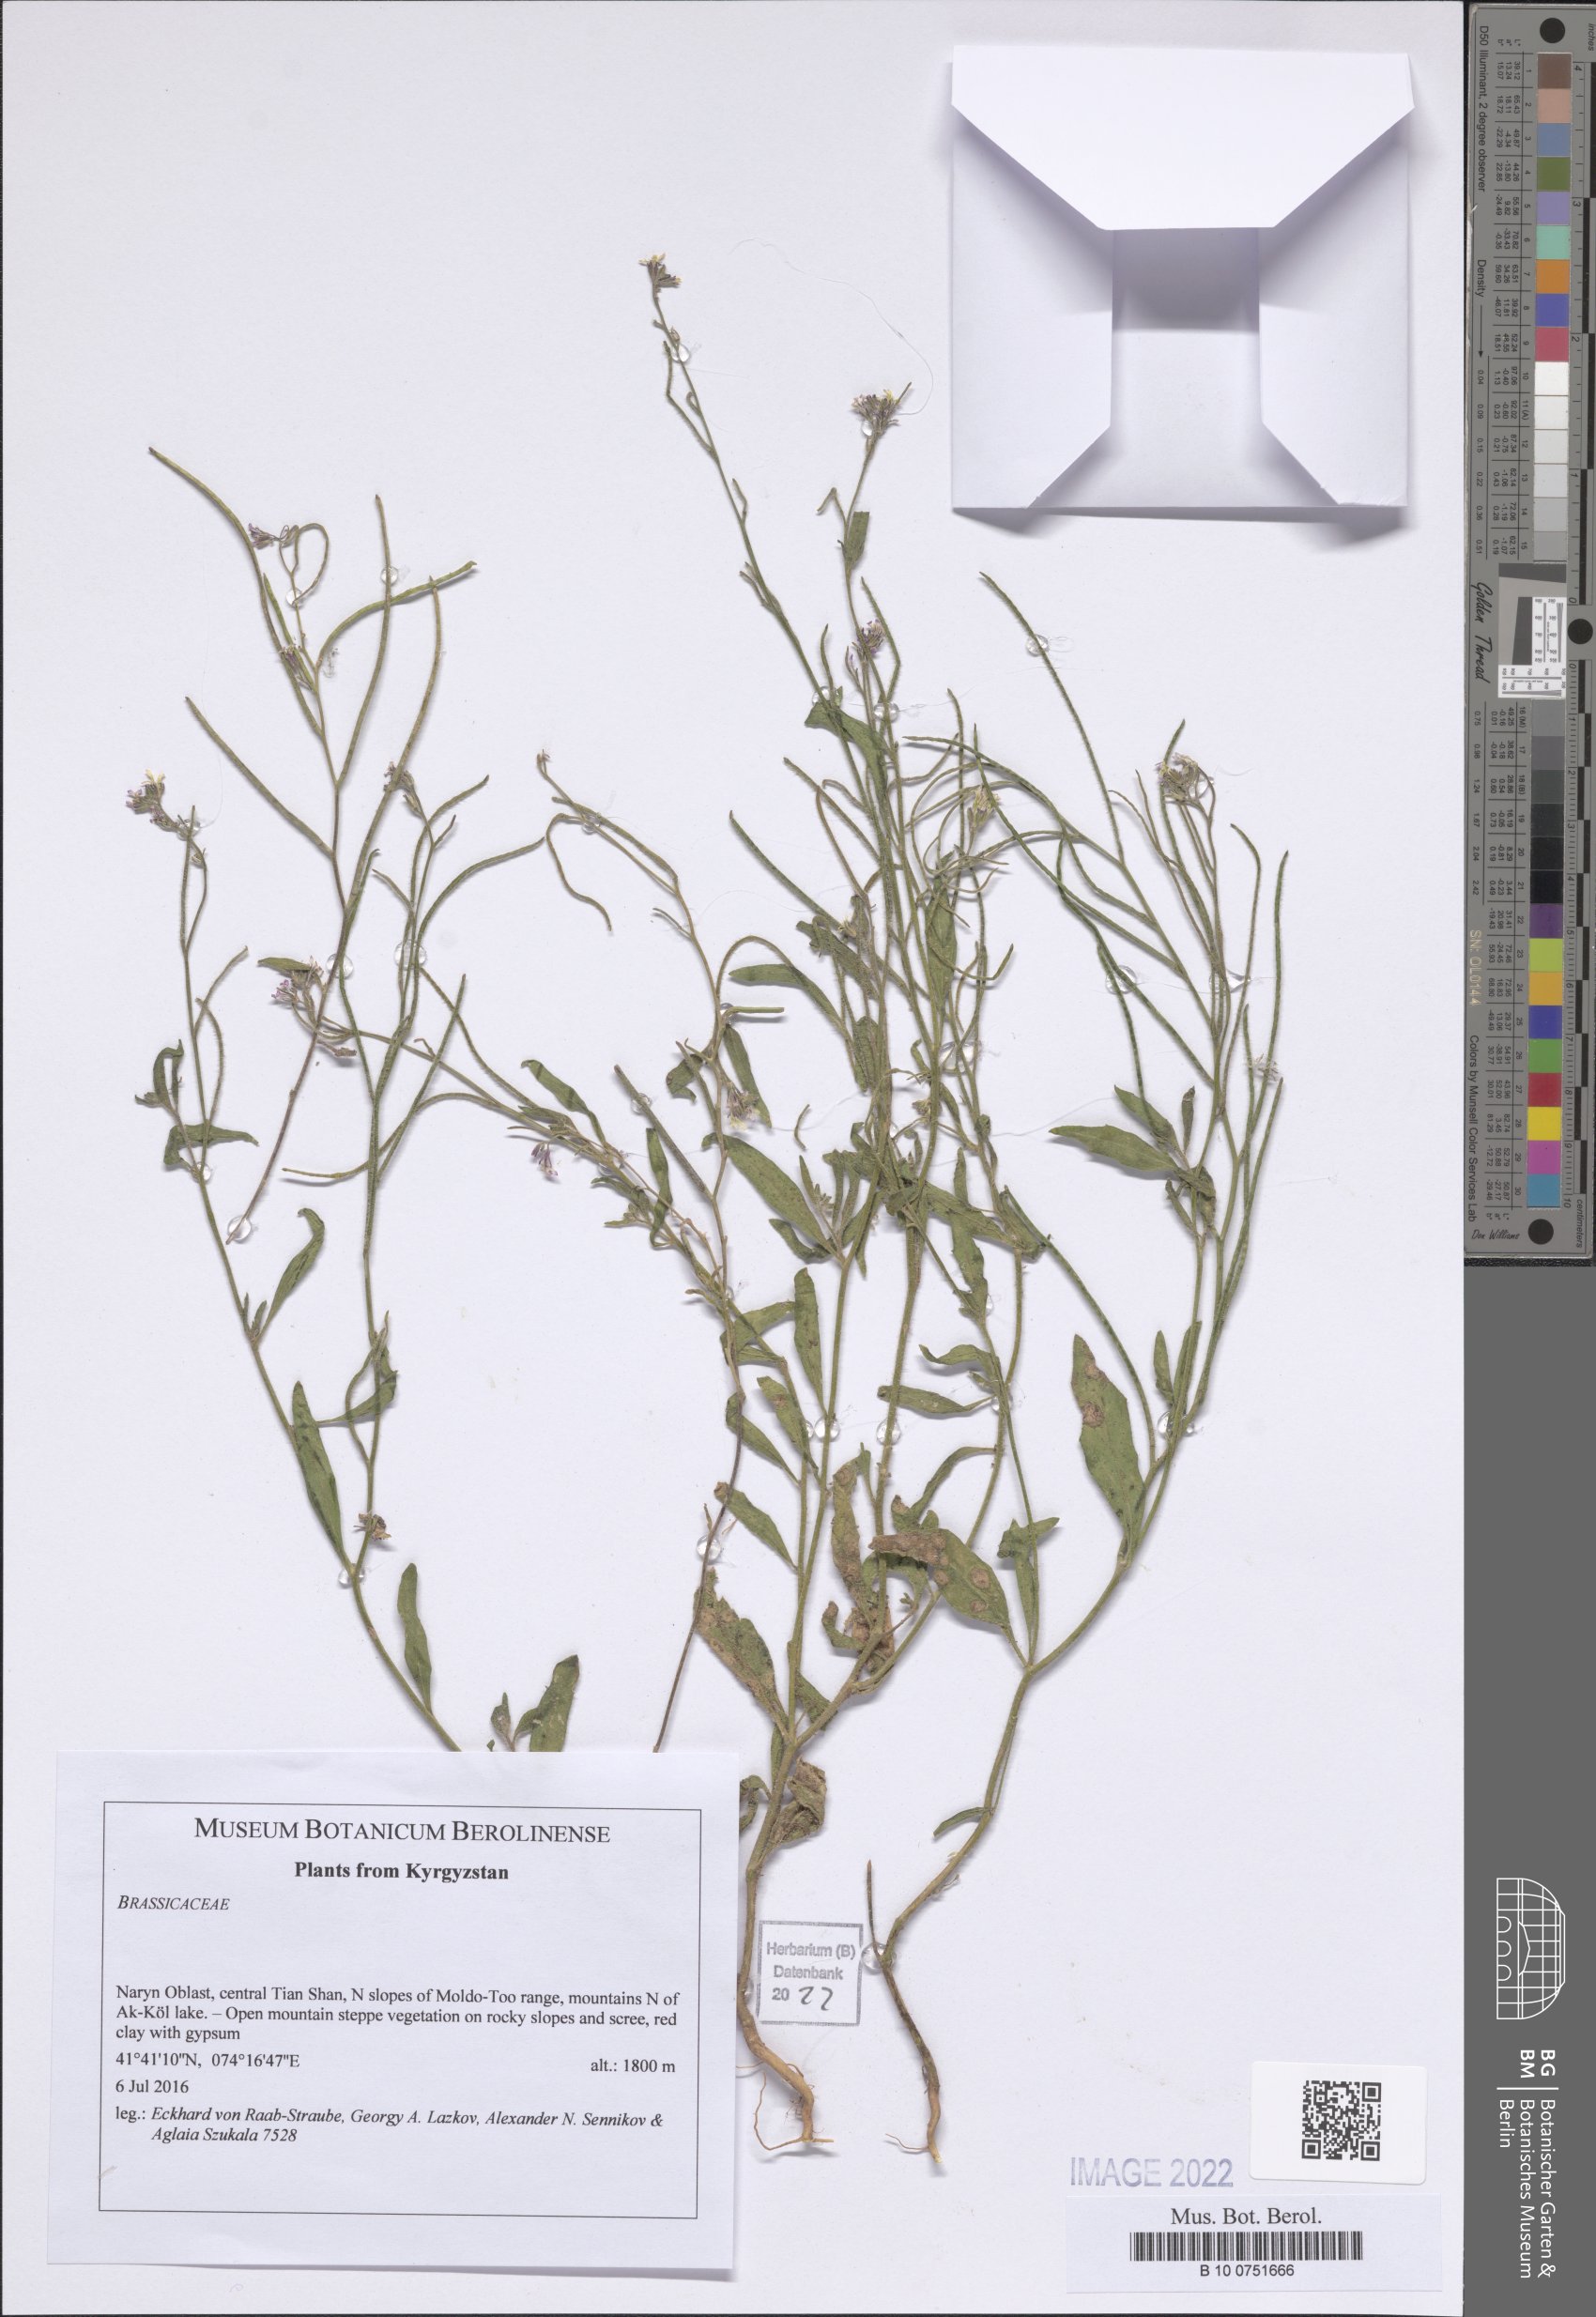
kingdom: Plantae
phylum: Tracheophyta
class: Magnoliopsida
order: Brassicales
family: Brassicaceae
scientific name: Brassicaceae
